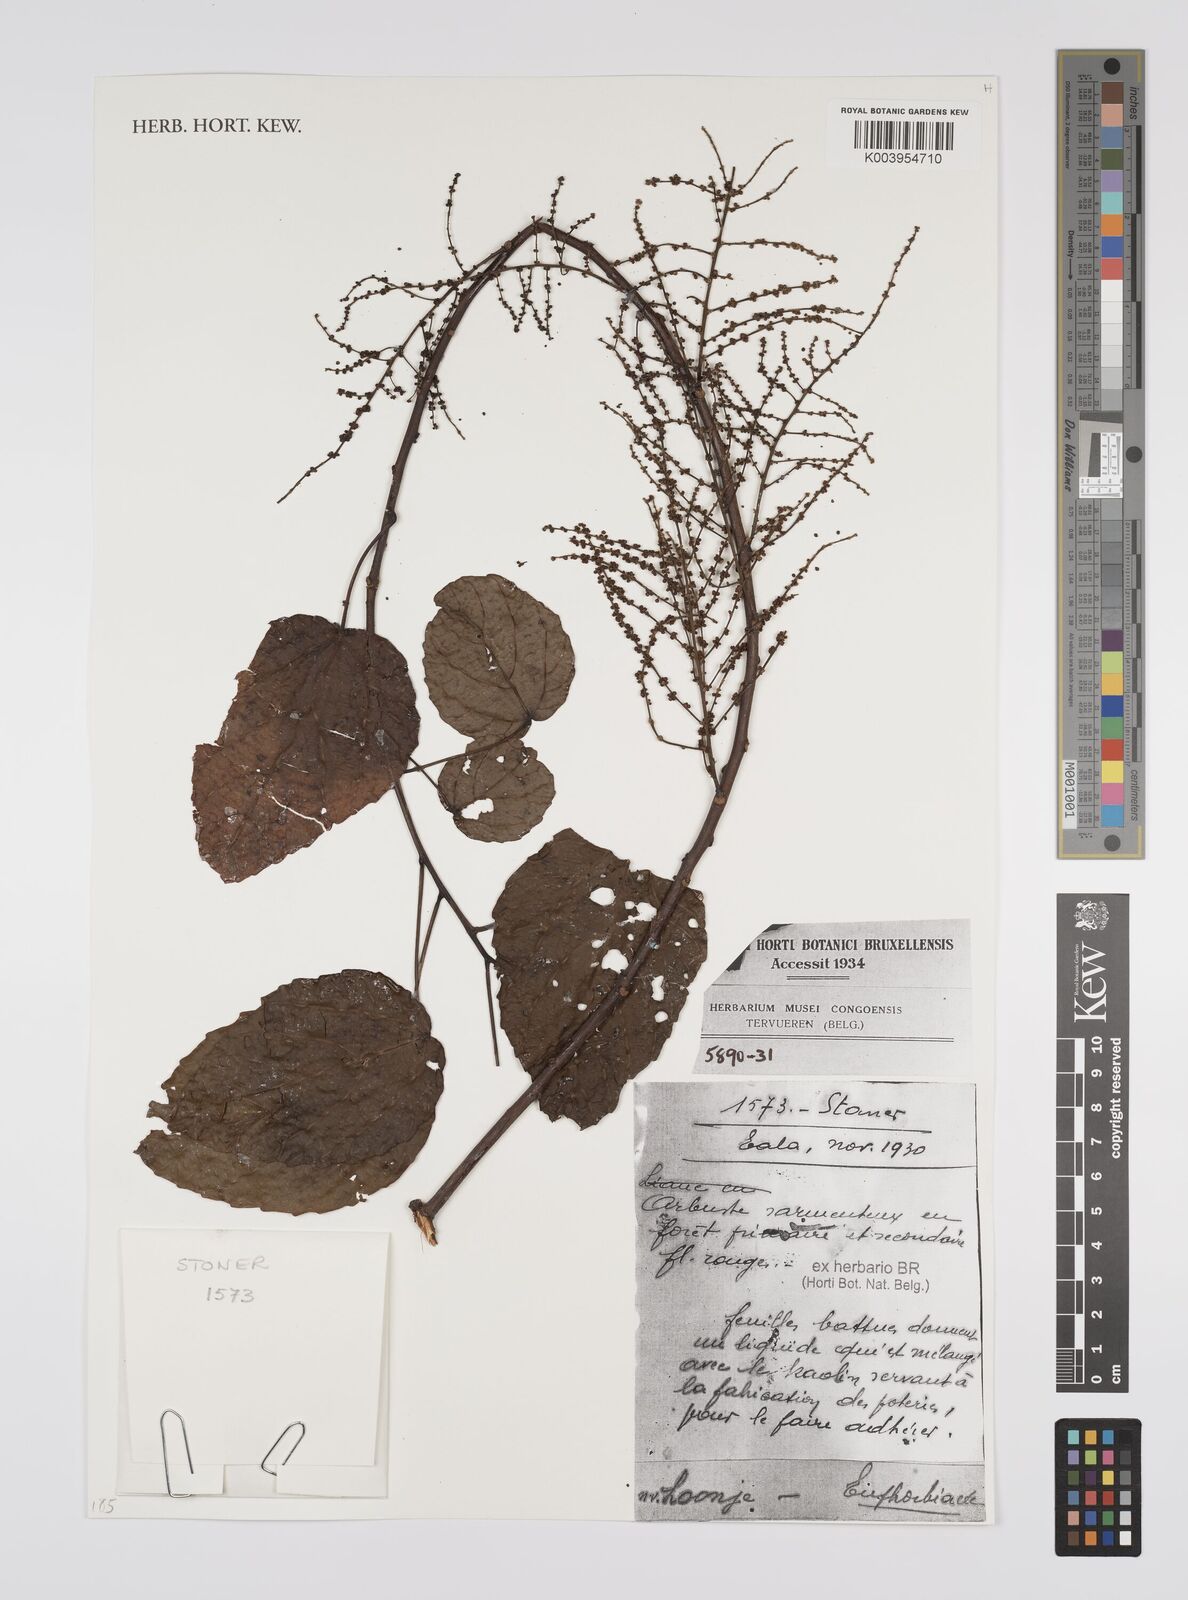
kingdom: Plantae
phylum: Tracheophyta
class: Magnoliopsida
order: Malpighiales
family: Euphorbiaceae
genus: Alchornea
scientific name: Alchornea yambuyaensis
